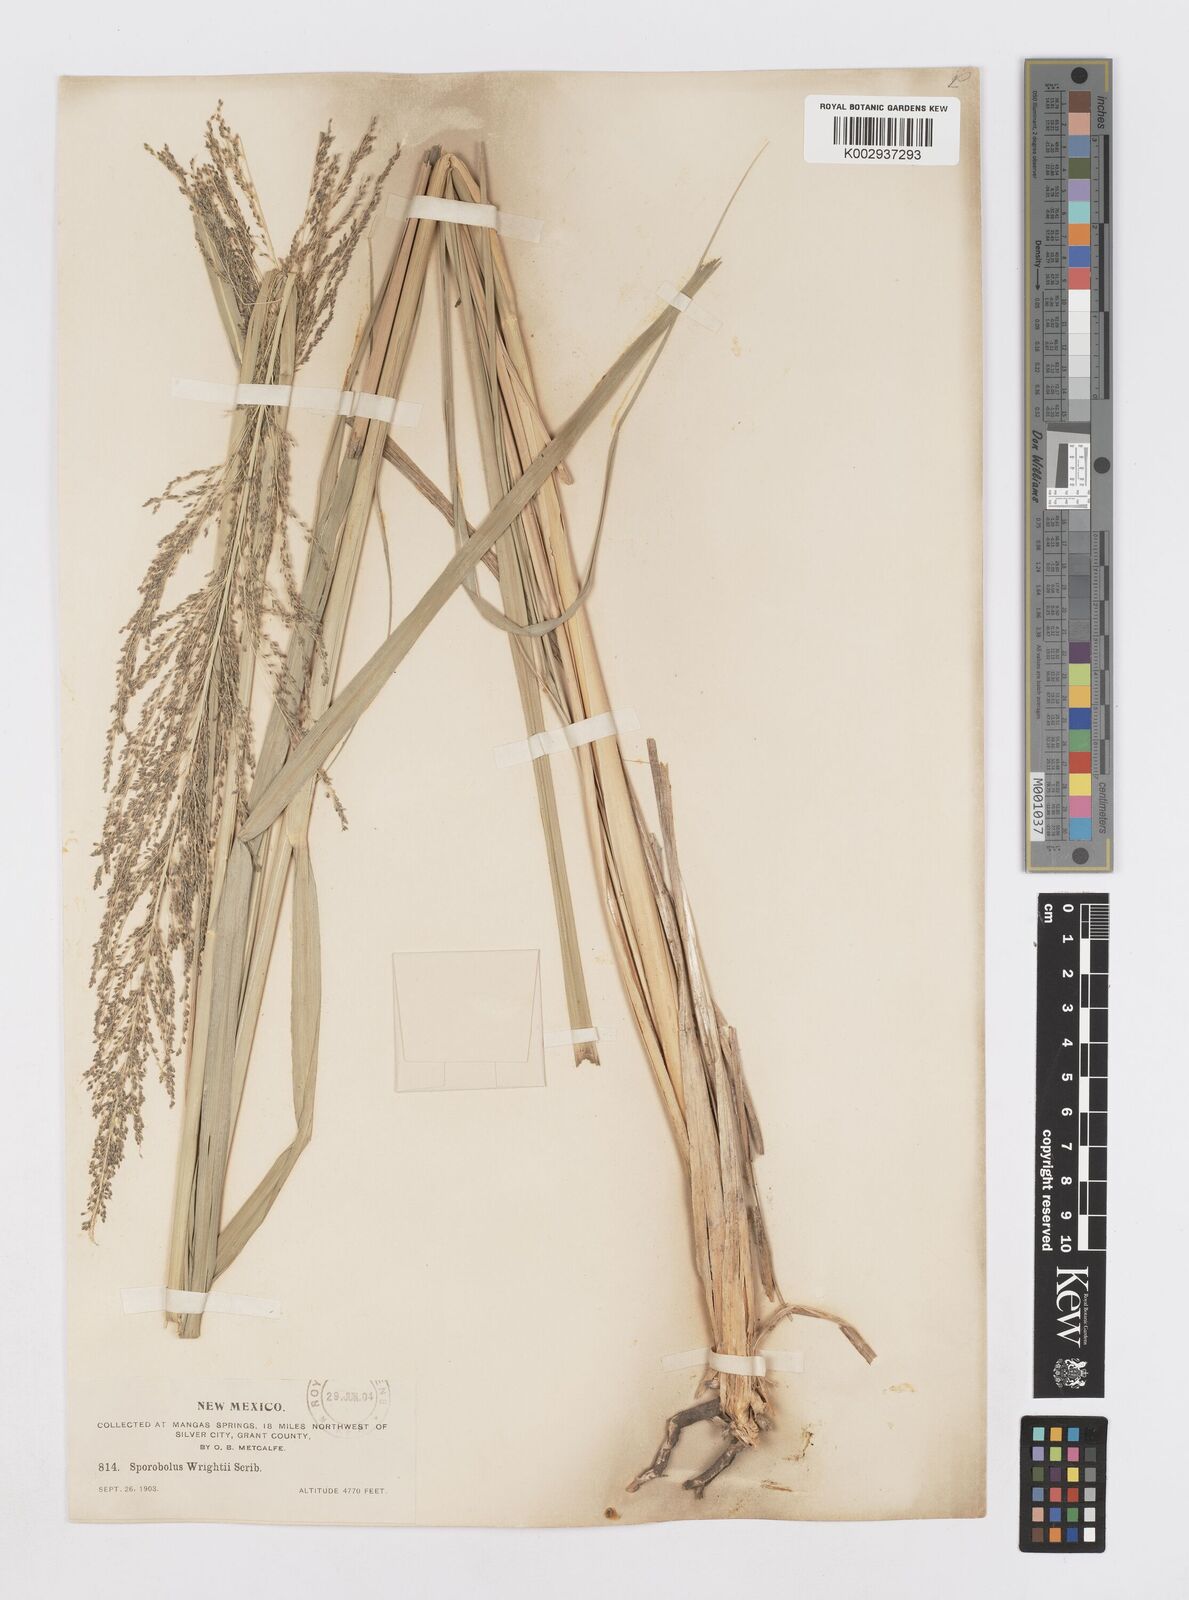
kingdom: Plantae
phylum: Tracheophyta
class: Liliopsida
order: Poales
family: Poaceae
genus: Sporobolus
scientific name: Sporobolus wrightii
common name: Big alkali sacaton
